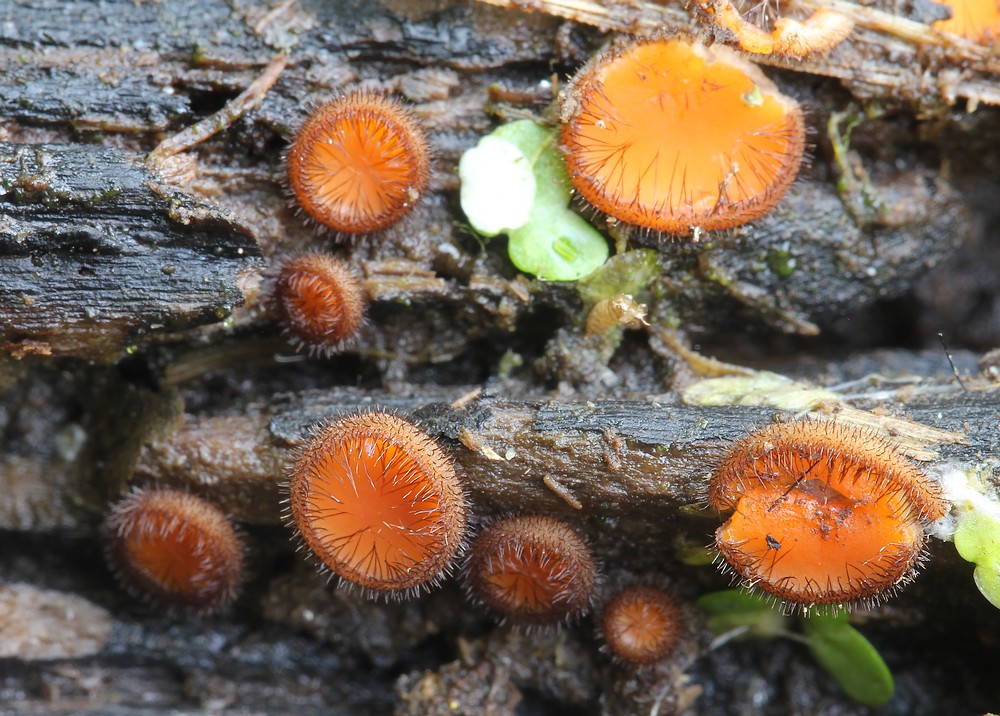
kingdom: Fungi
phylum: Ascomycota
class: Pezizomycetes
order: Pezizales
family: Pyronemataceae
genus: Scutellinia
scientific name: Scutellinia scutellata
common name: frynset skjoldbæger
